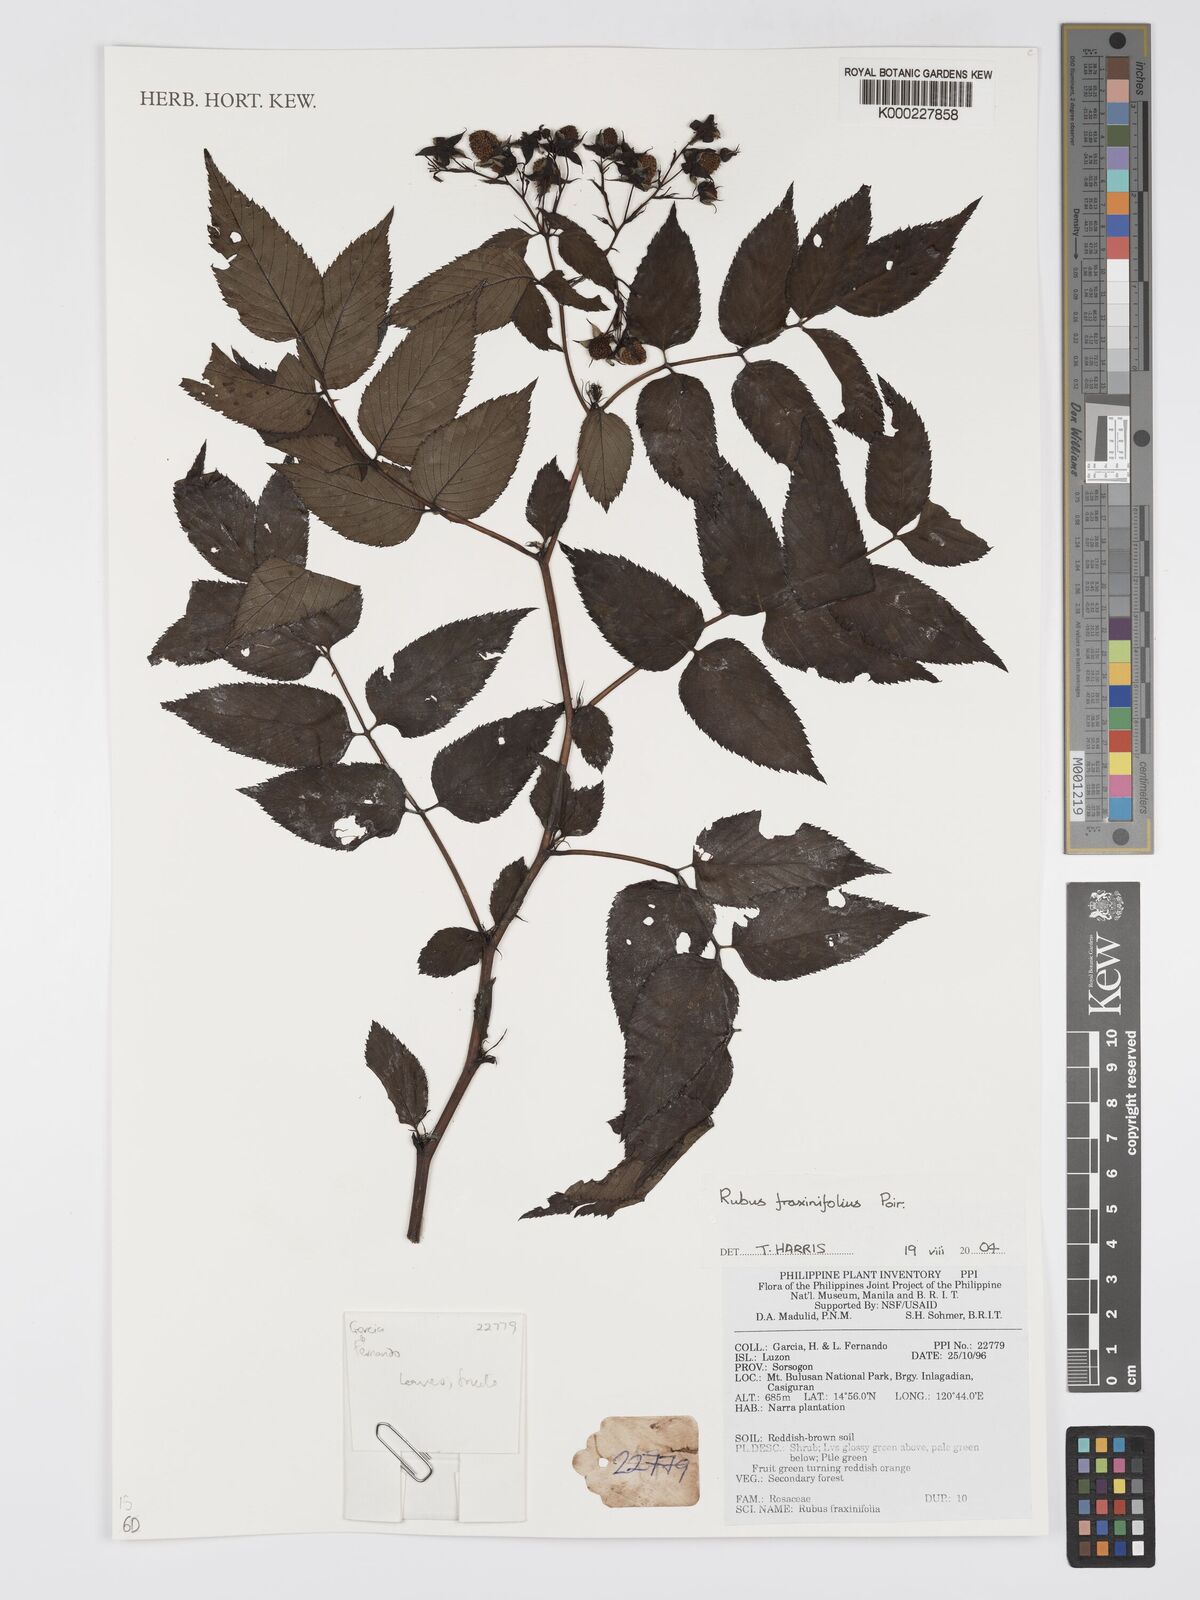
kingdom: Plantae
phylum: Tracheophyta
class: Magnoliopsida
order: Rosales
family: Rosaceae
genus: Rubus
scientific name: Rubus fraxinifolius
